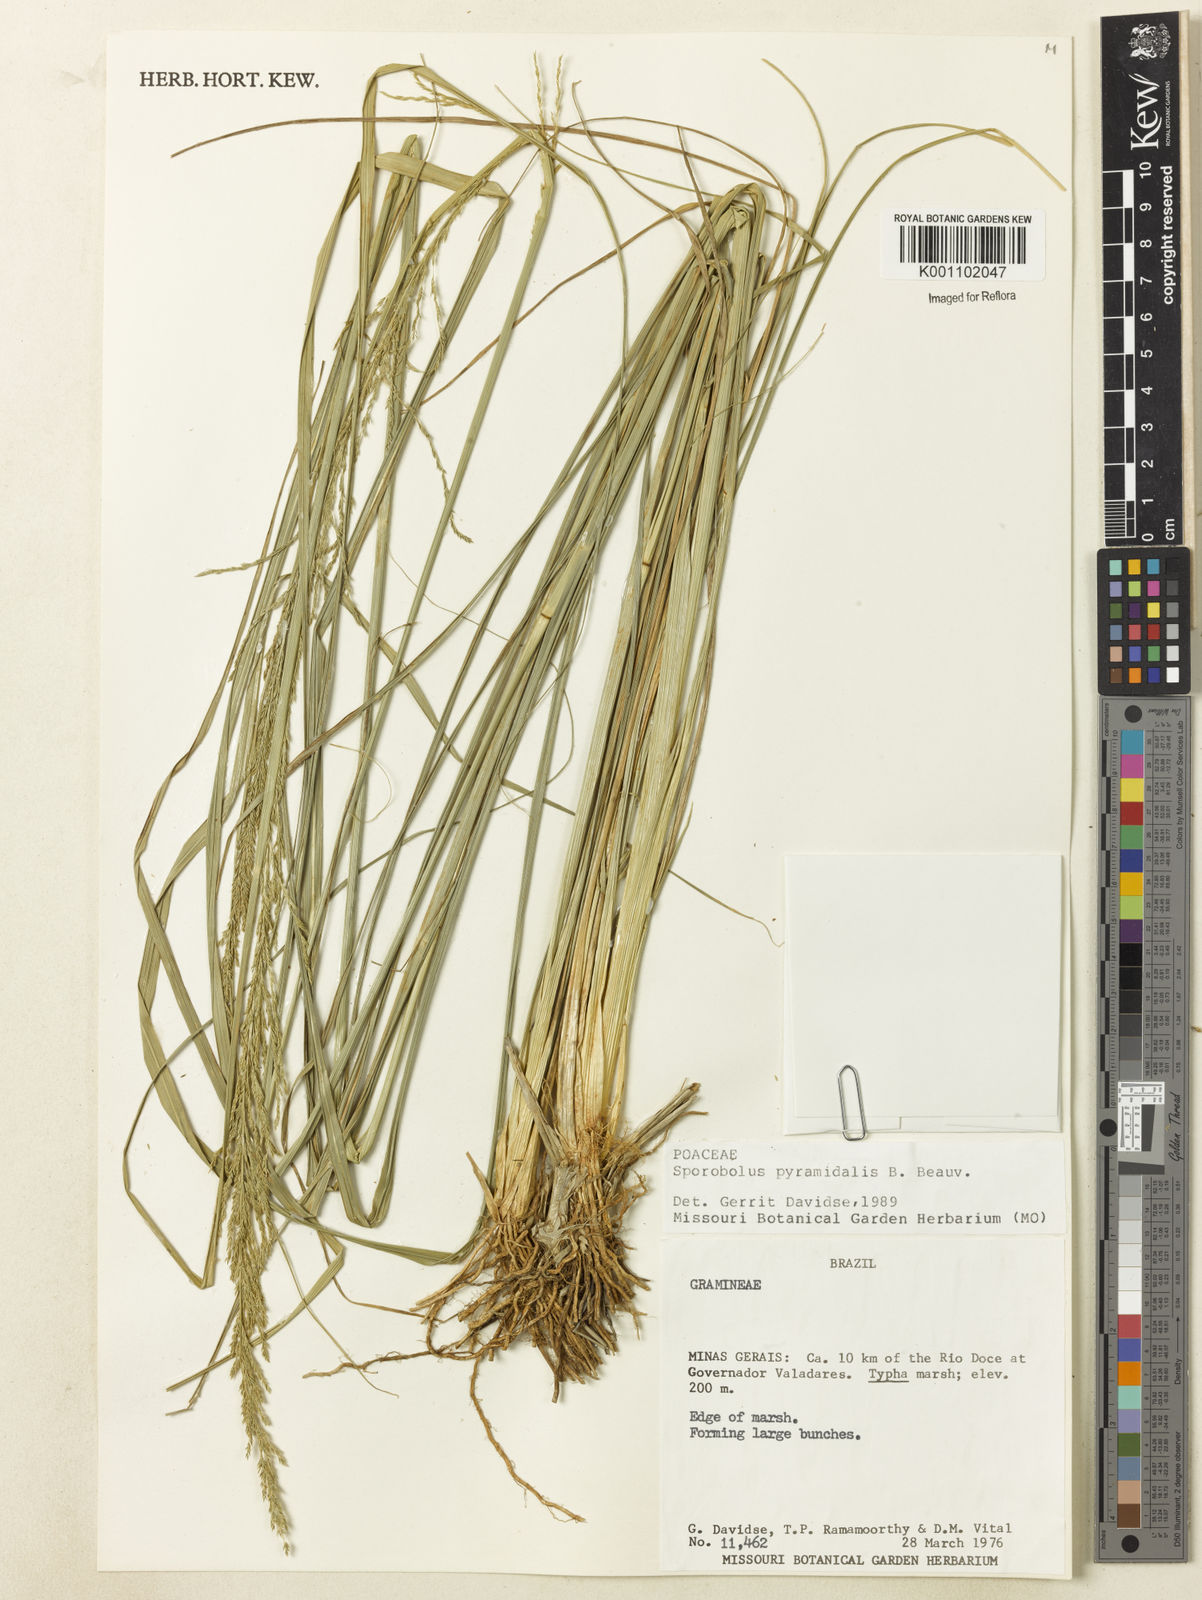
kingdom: Plantae
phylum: Tracheophyta
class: Liliopsida
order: Poales
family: Poaceae
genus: Sporobolus
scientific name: Sporobolus pyramidalis
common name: West indian dropseed
